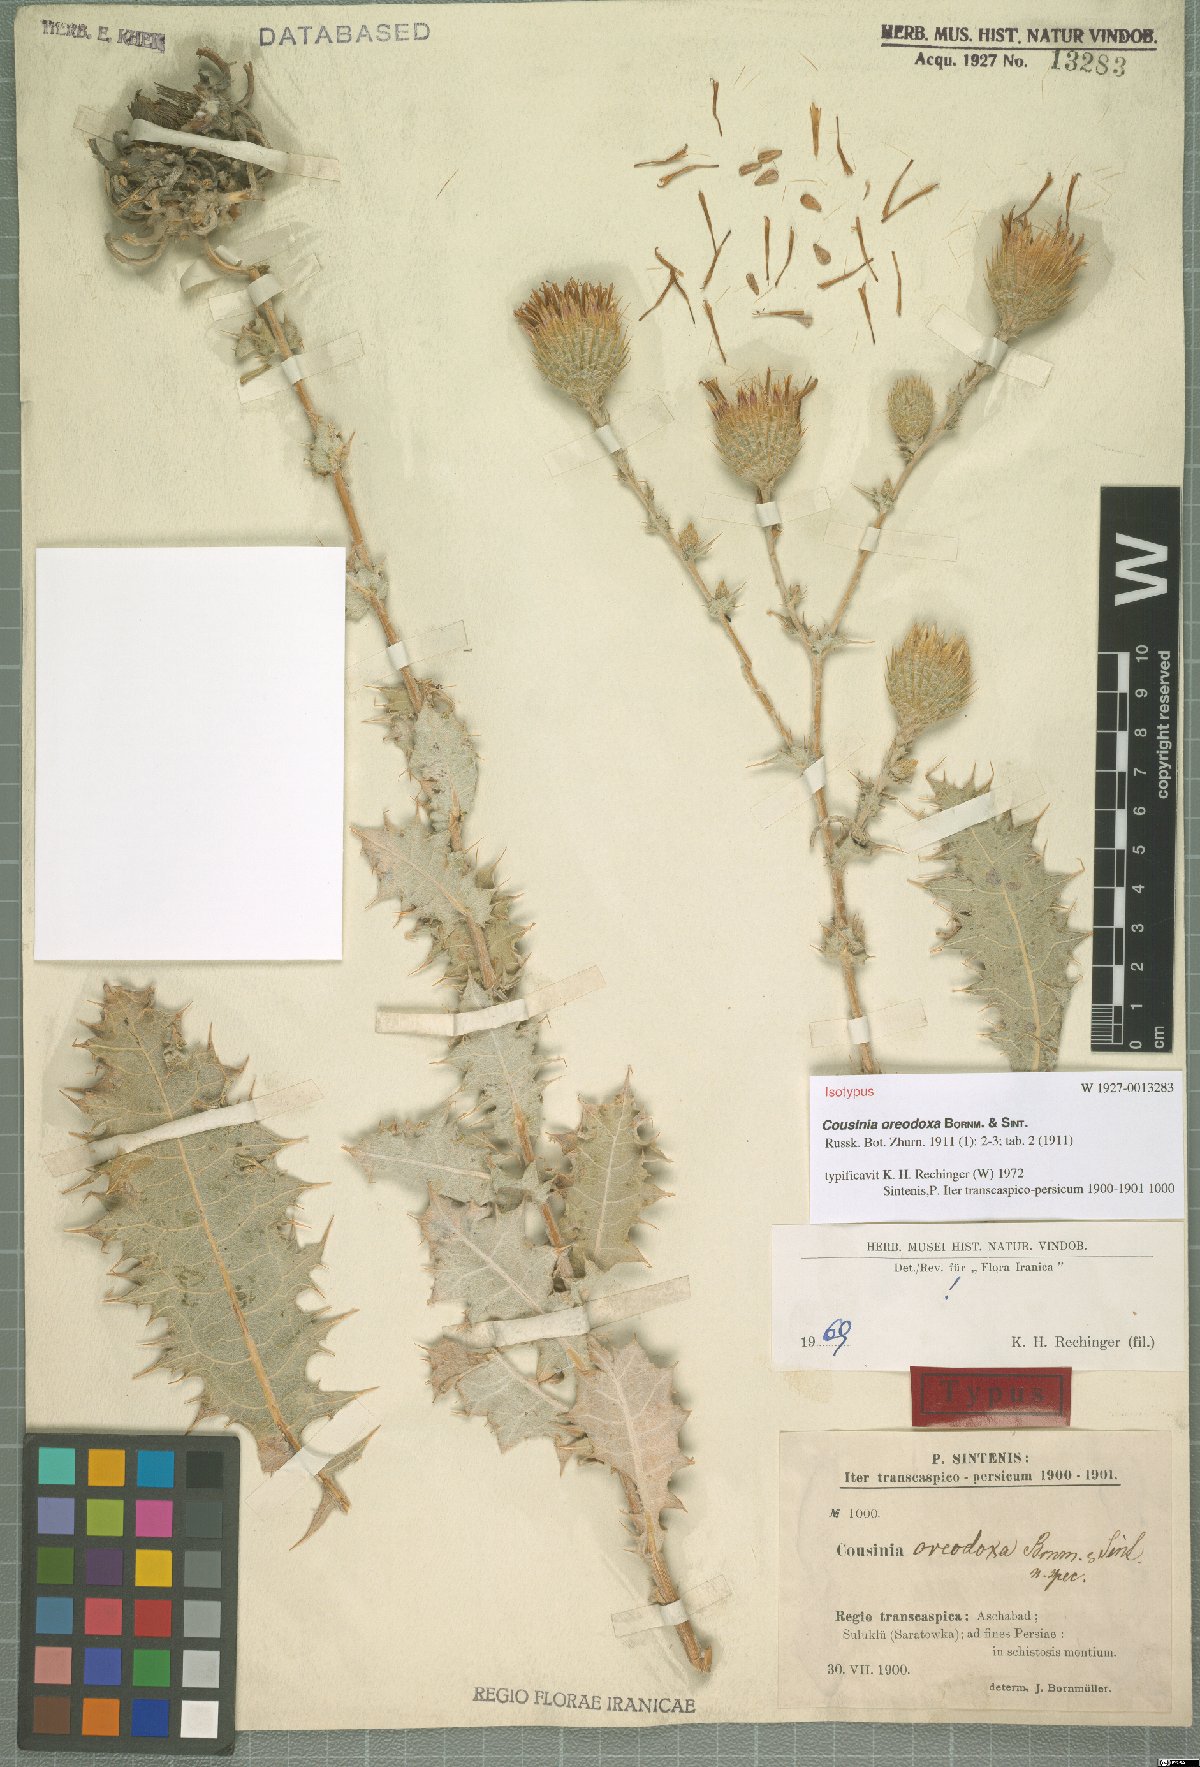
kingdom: Plantae
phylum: Tracheophyta
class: Magnoliopsida
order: Asterales
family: Asteraceae
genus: Cousinia
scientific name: Cousinia oreodoxa
